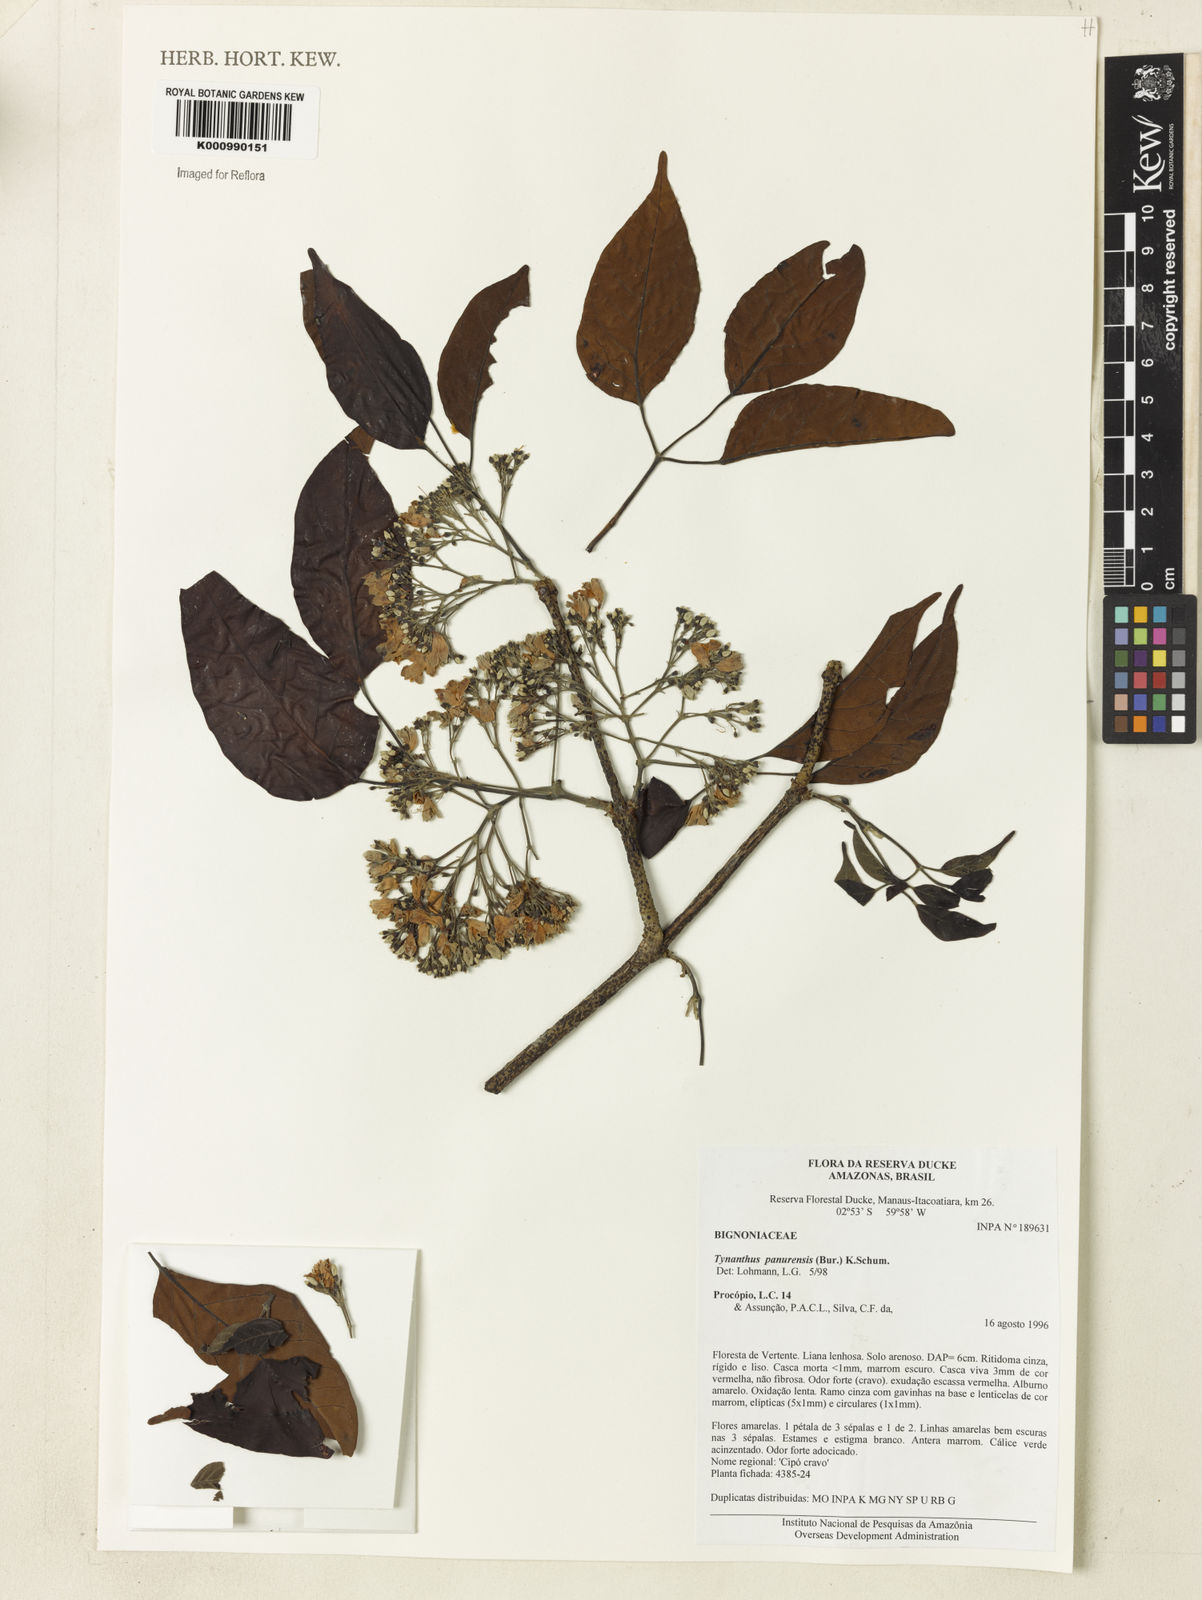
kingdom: Plantae
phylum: Tracheophyta
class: Magnoliopsida
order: Lamiales
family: Bignoniaceae
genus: Tynanthus
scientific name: Tynanthus
